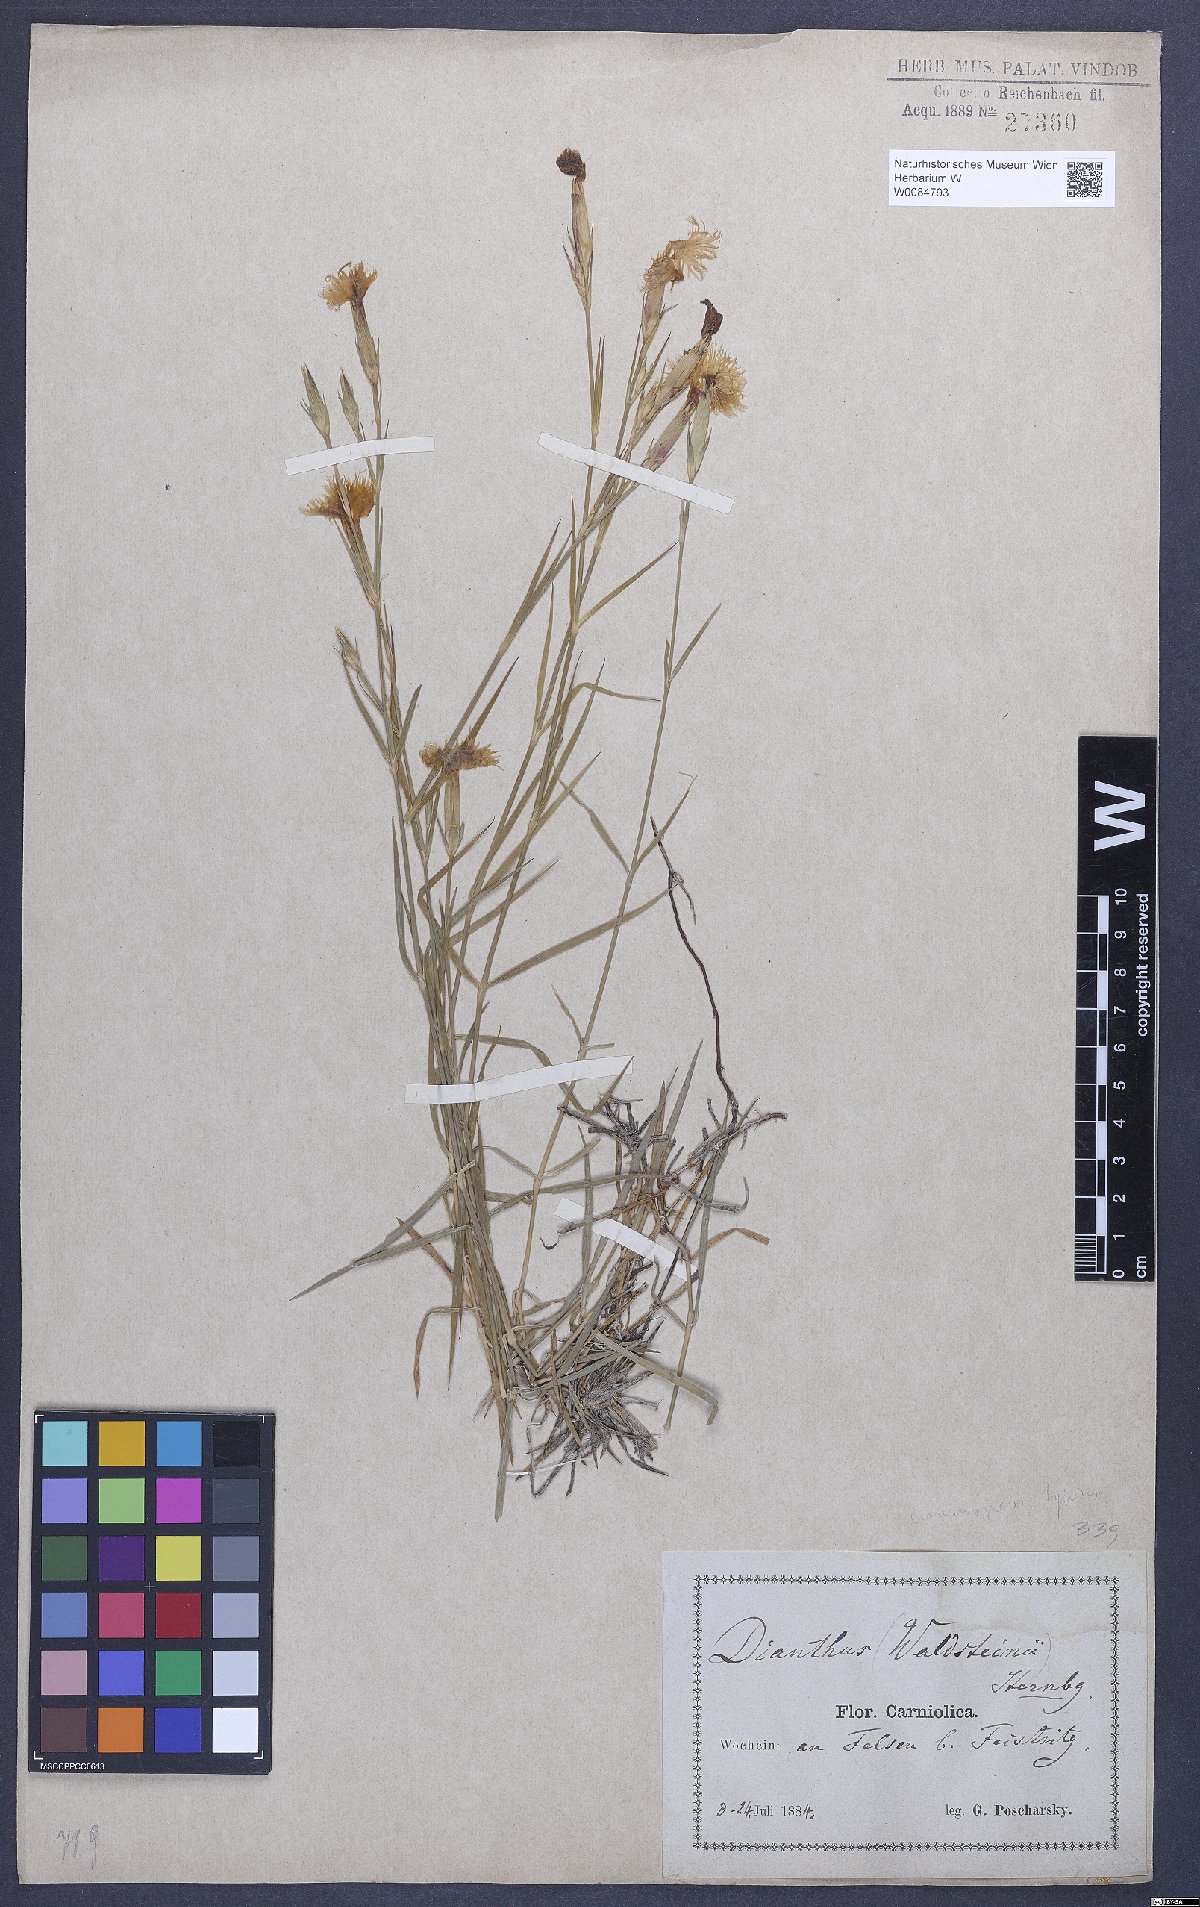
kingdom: Plantae
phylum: Tracheophyta
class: Magnoliopsida
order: Caryophyllales
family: Caryophyllaceae
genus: Dianthus
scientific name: Dianthus monspessulanus
